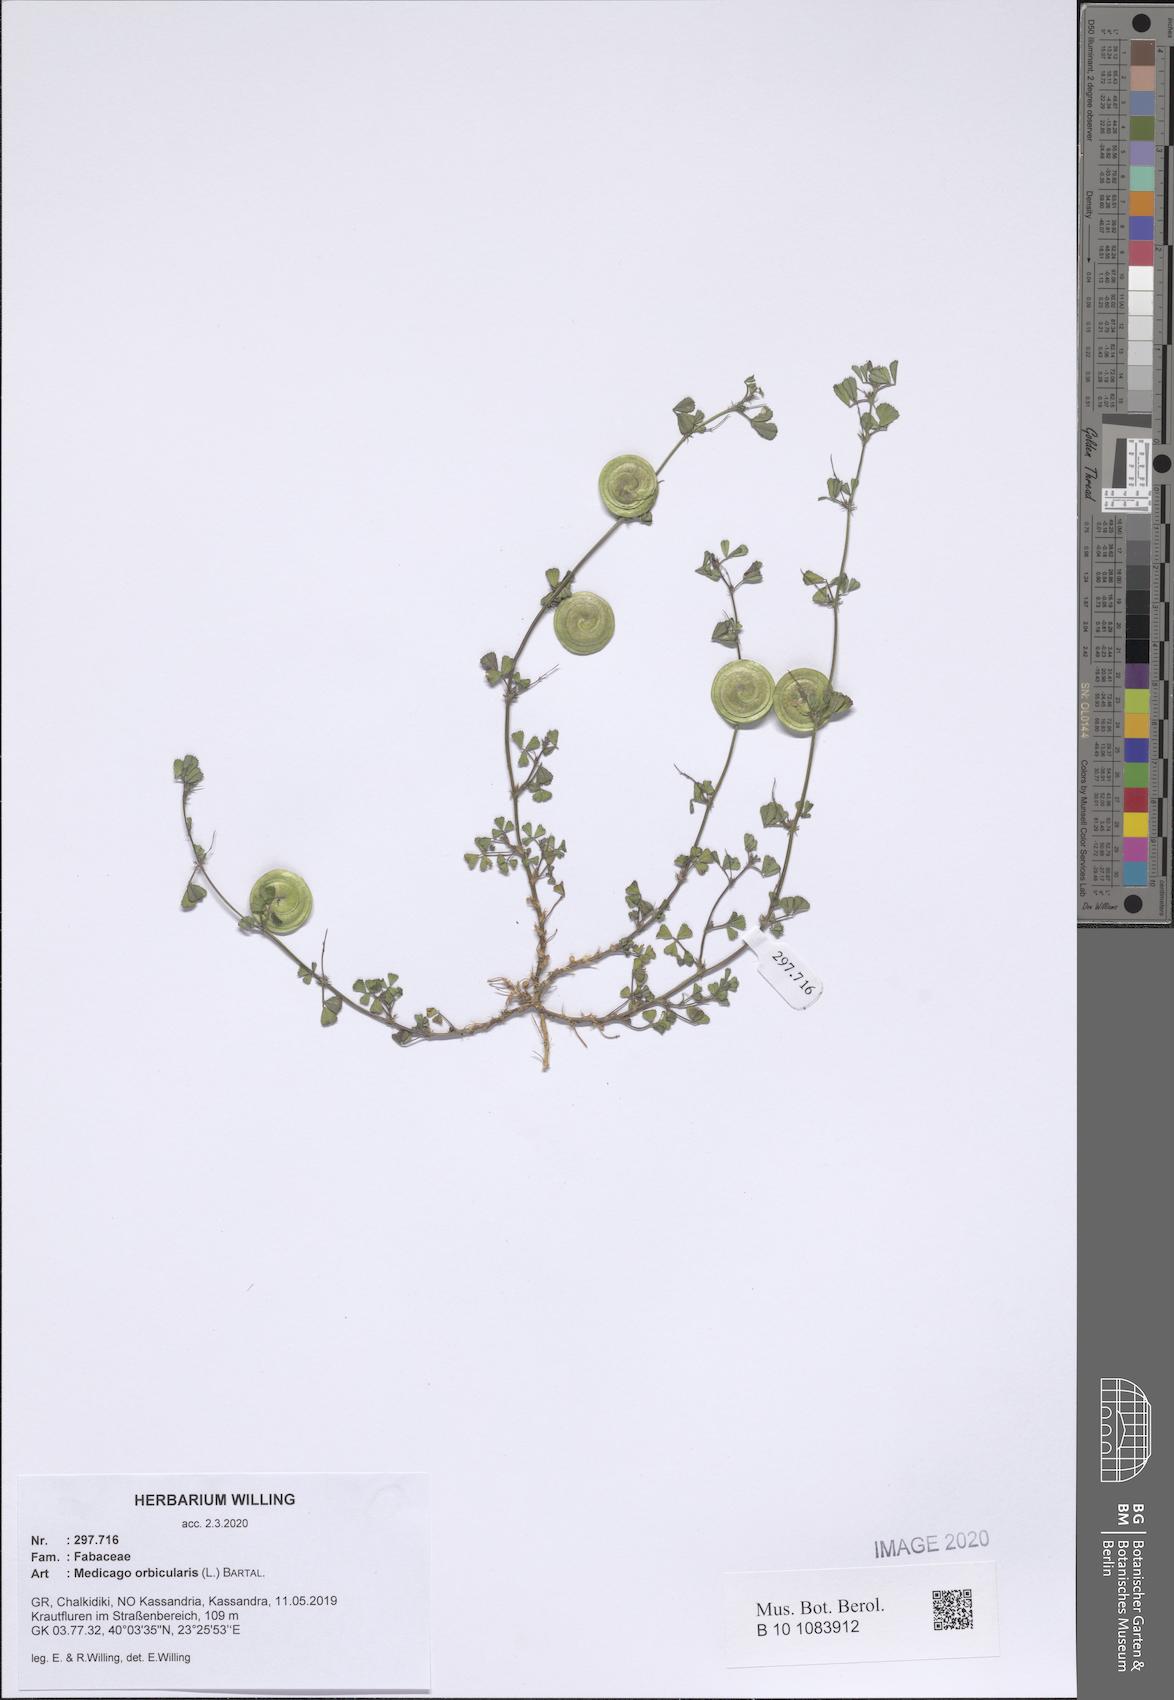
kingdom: Plantae
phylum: Tracheophyta
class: Magnoliopsida
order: Fabales
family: Fabaceae
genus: Medicago
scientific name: Medicago orbicularis
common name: Button medick
